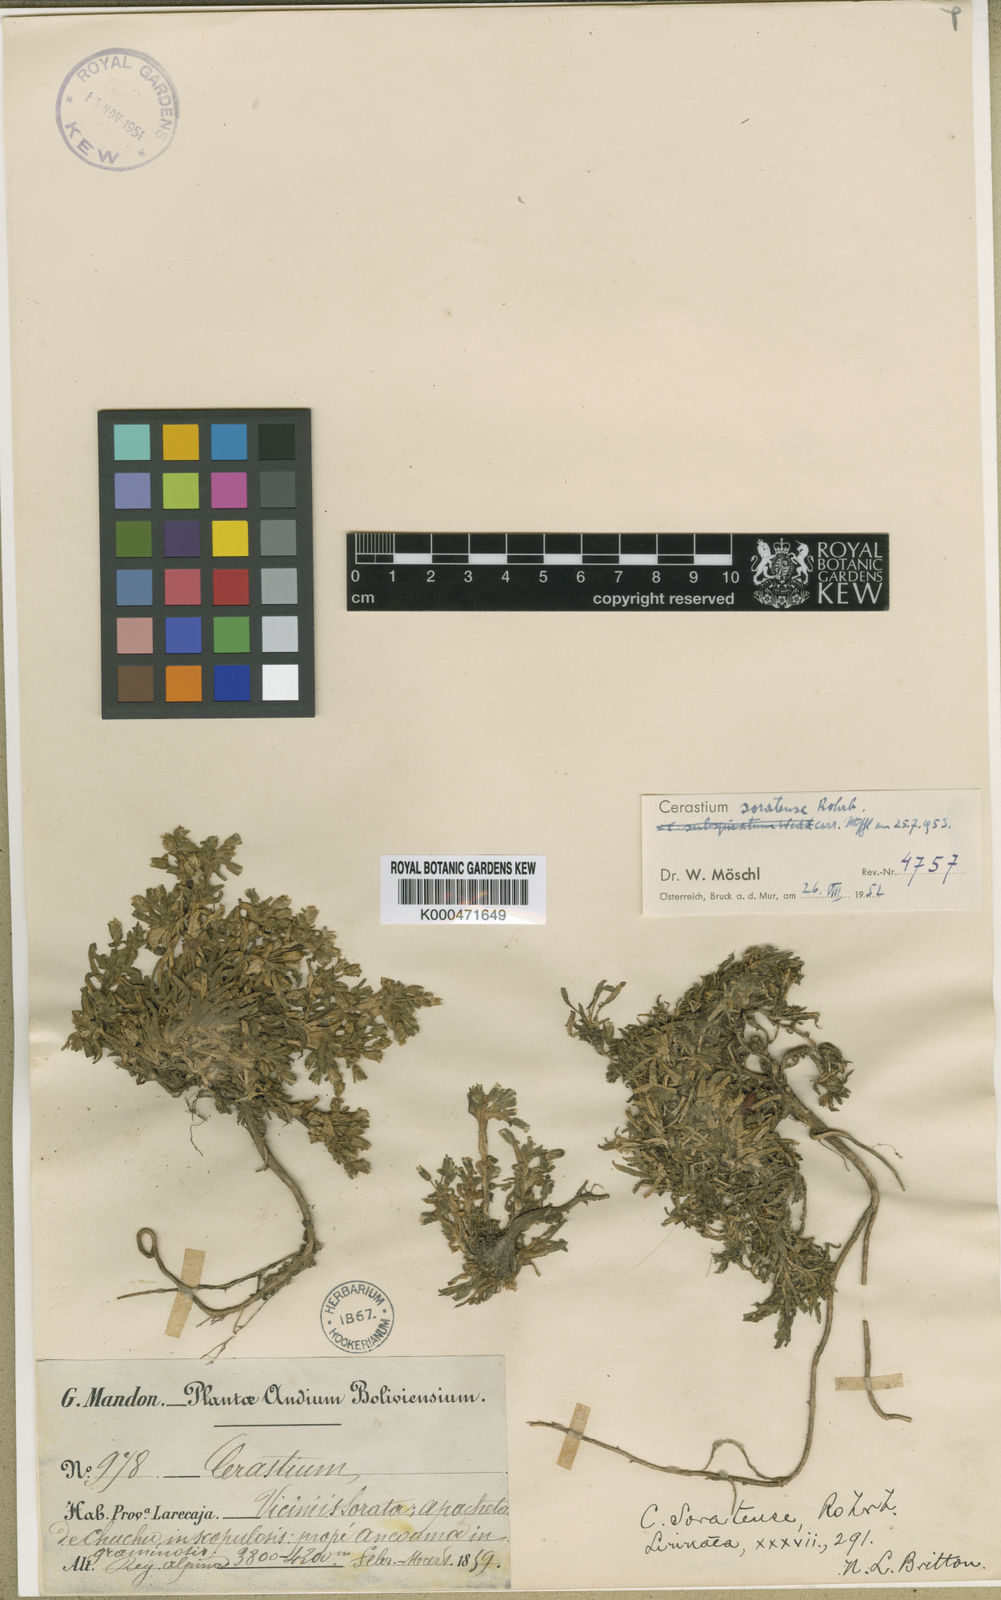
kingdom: Plantae
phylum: Tracheophyta
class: Magnoliopsida
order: Caryophyllales
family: Caryophyllaceae
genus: Cerastium
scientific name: Cerastium soratense
